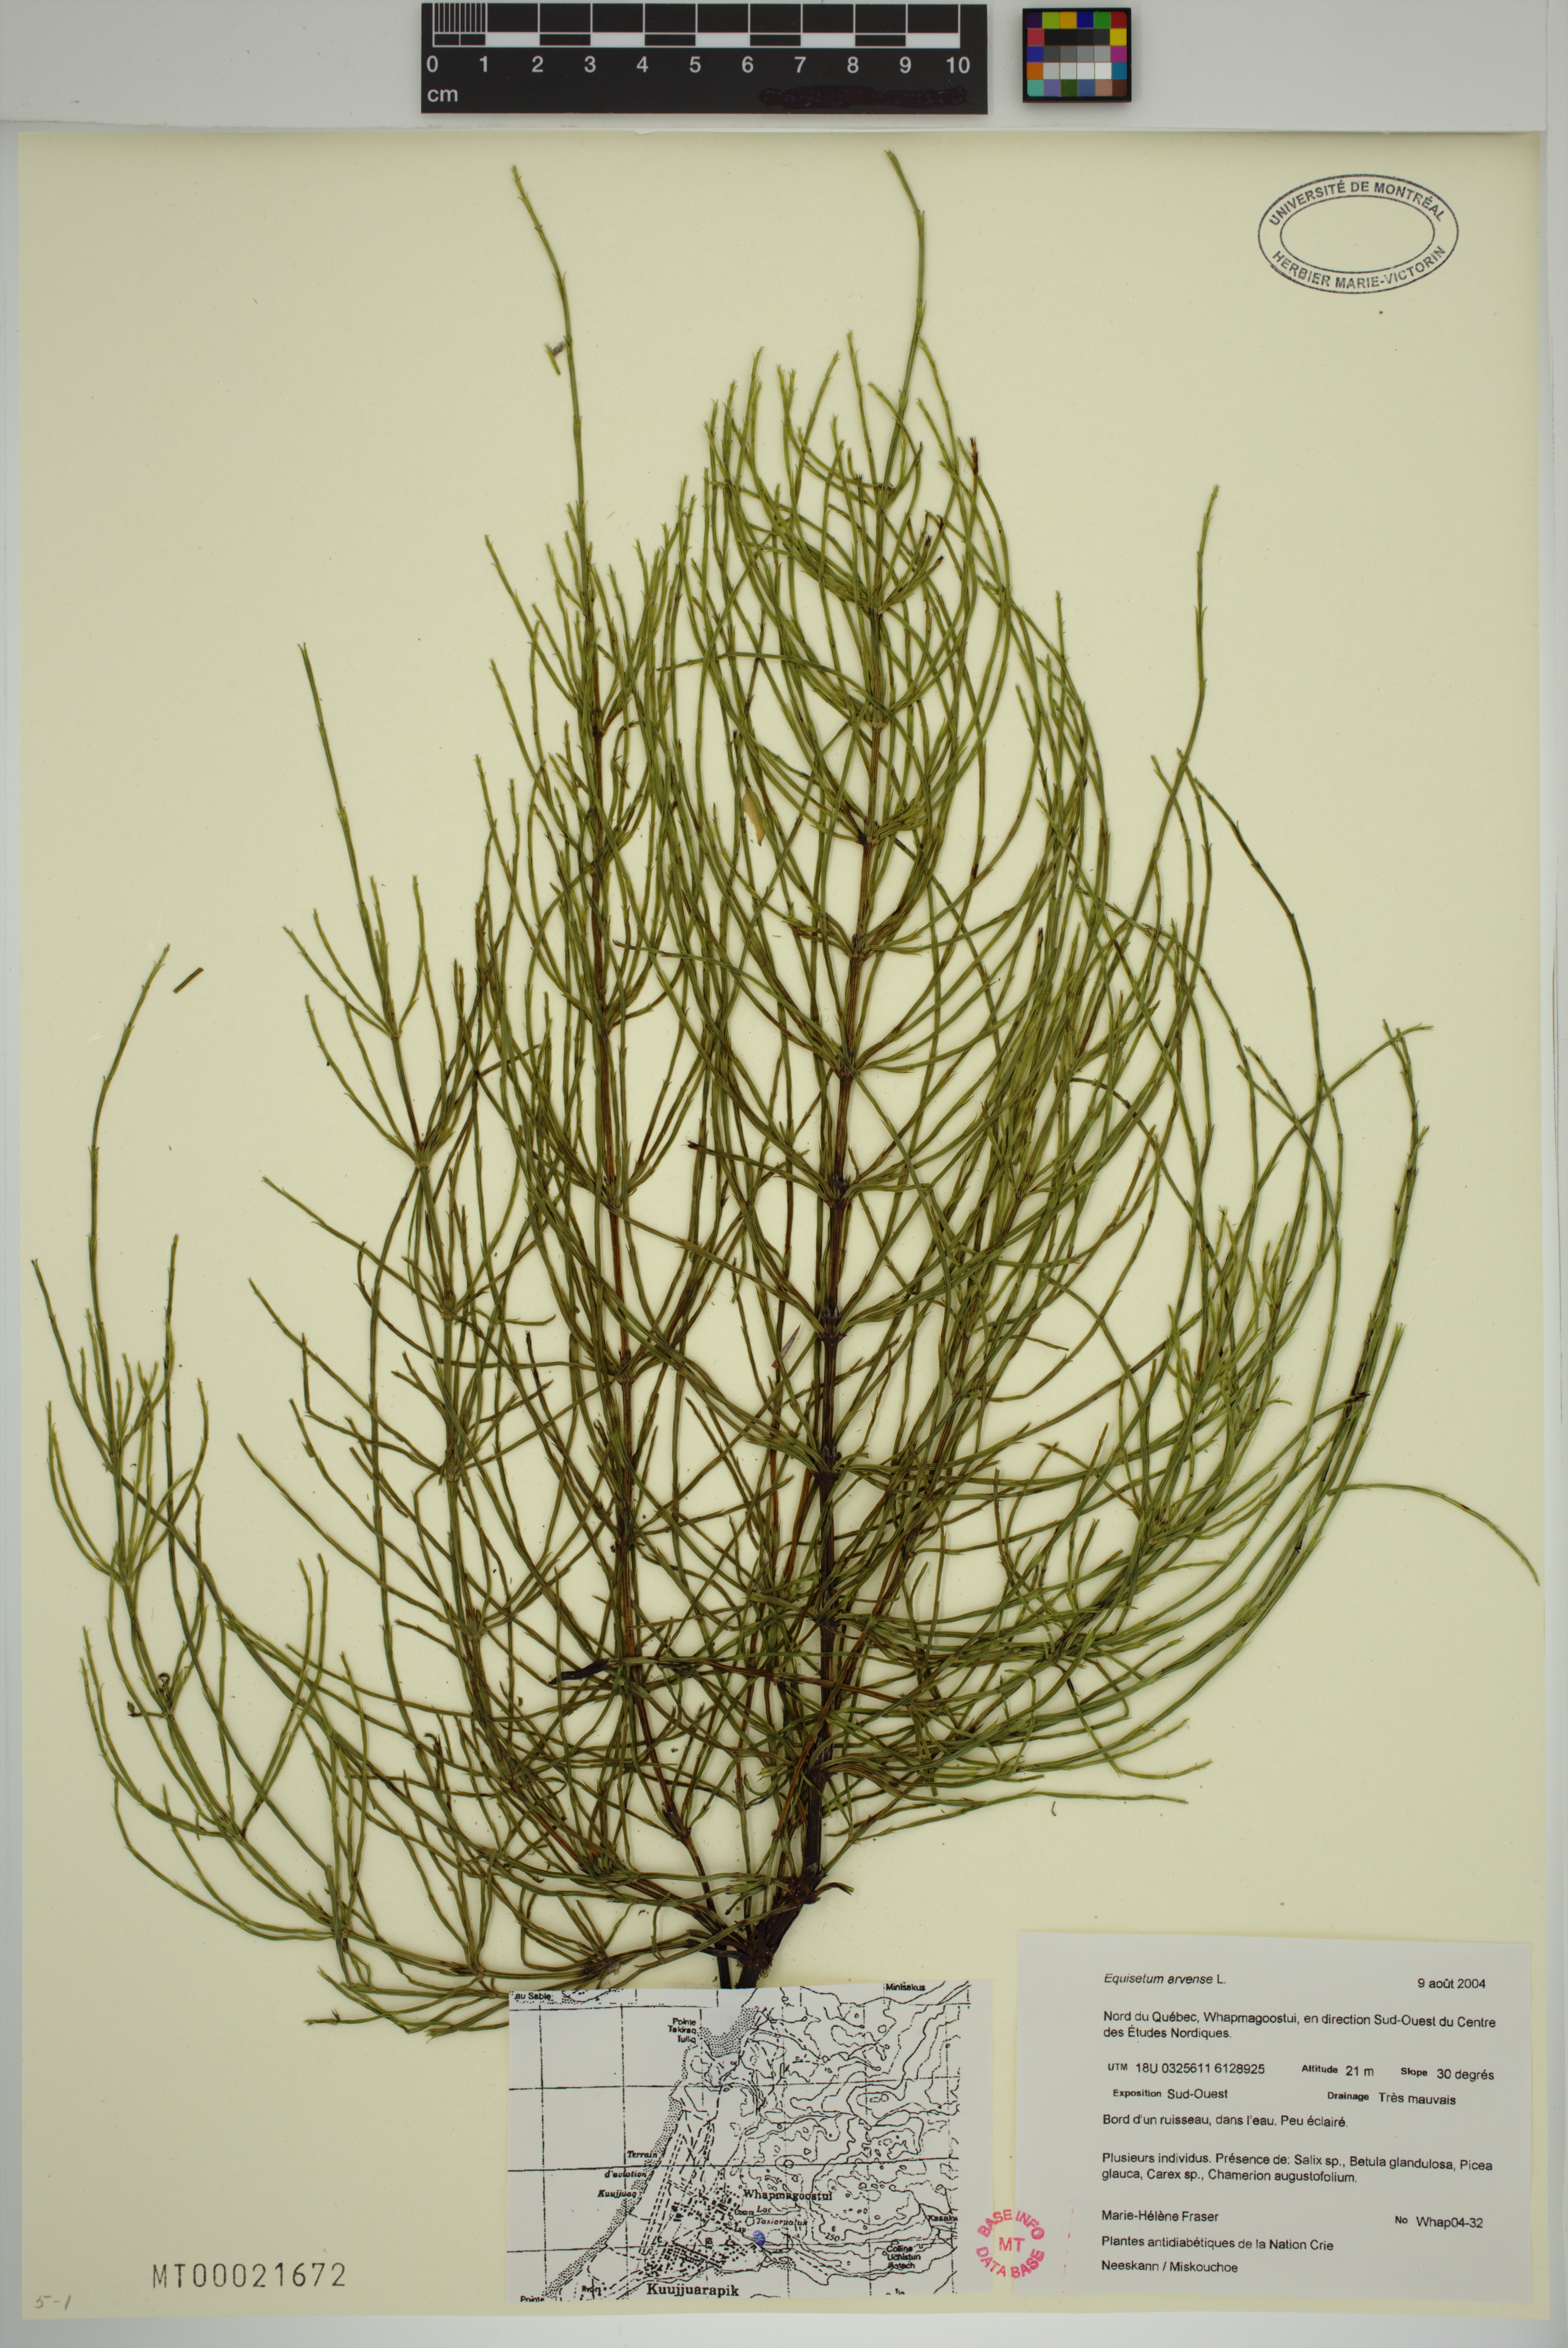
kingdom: Plantae
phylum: Tracheophyta
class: Polypodiopsida
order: Equisetales
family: Equisetaceae
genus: Equisetum
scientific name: Equisetum arvense
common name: Field horsetail
